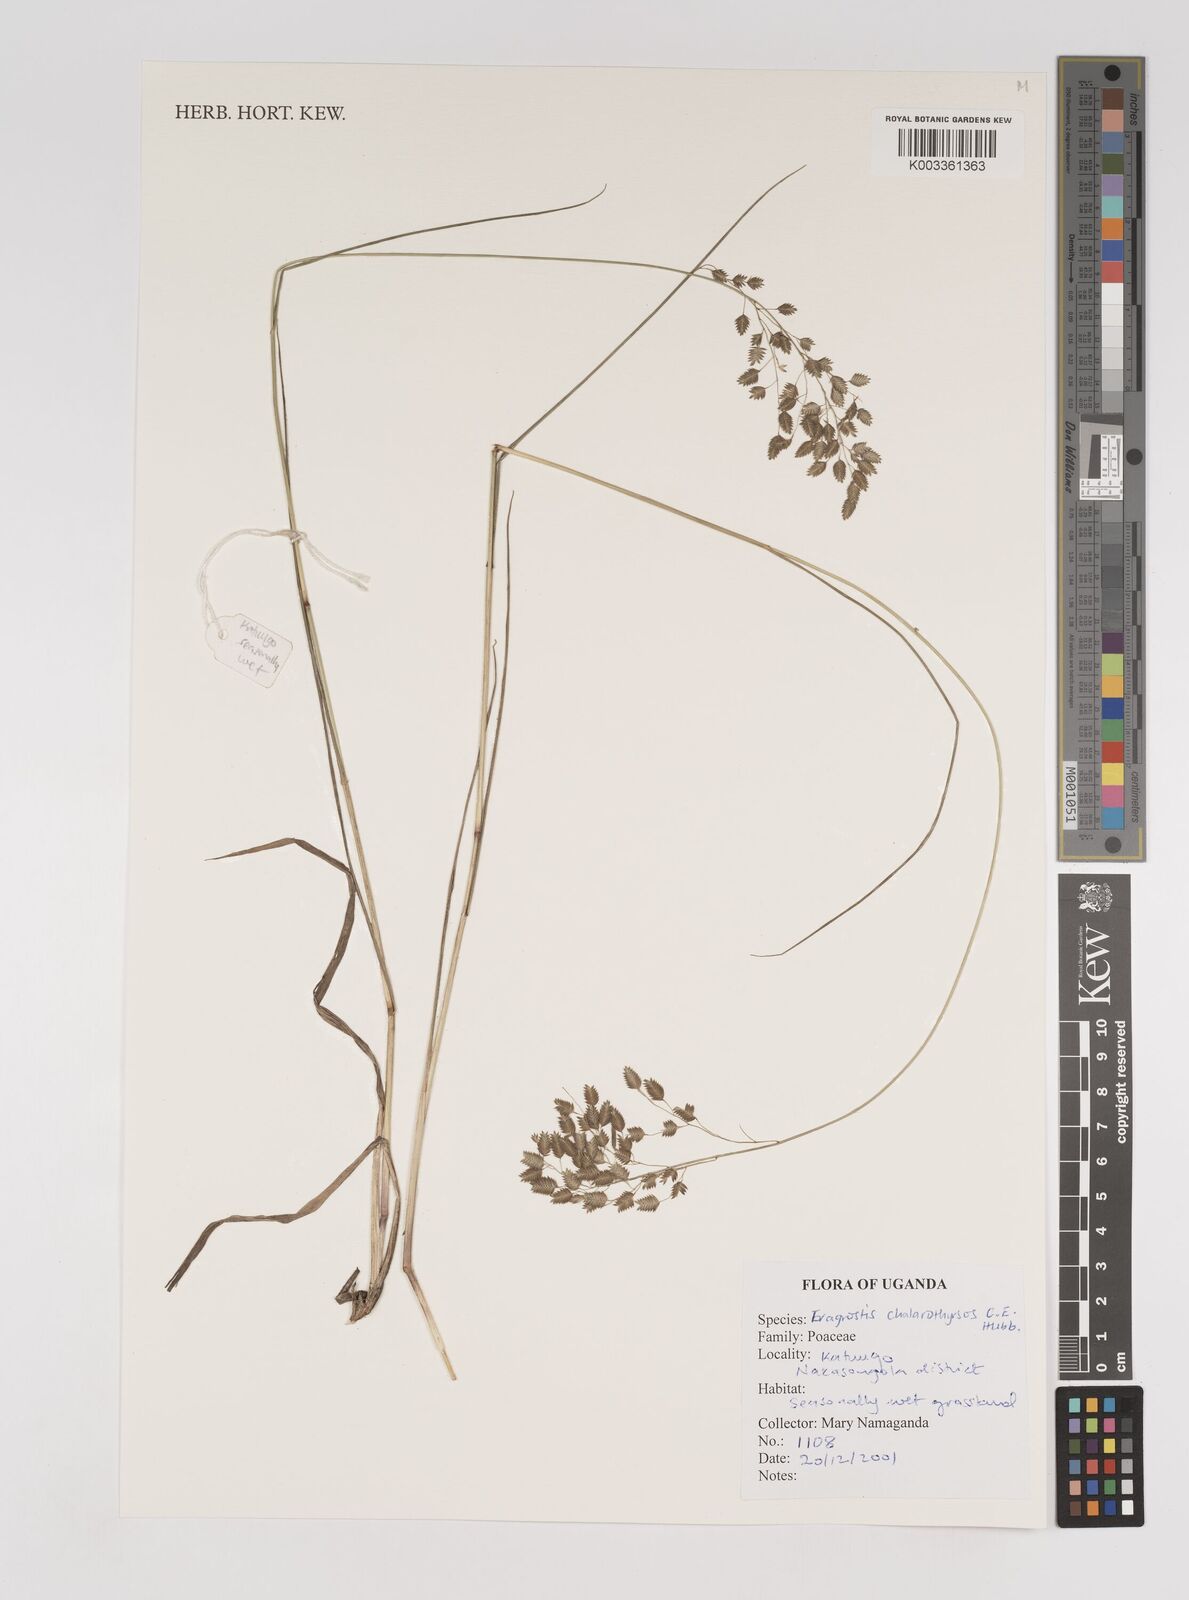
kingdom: Plantae
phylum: Tracheophyta
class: Liliopsida
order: Poales
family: Poaceae
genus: Eragrostis
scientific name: Eragrostis chalarothyrsos
